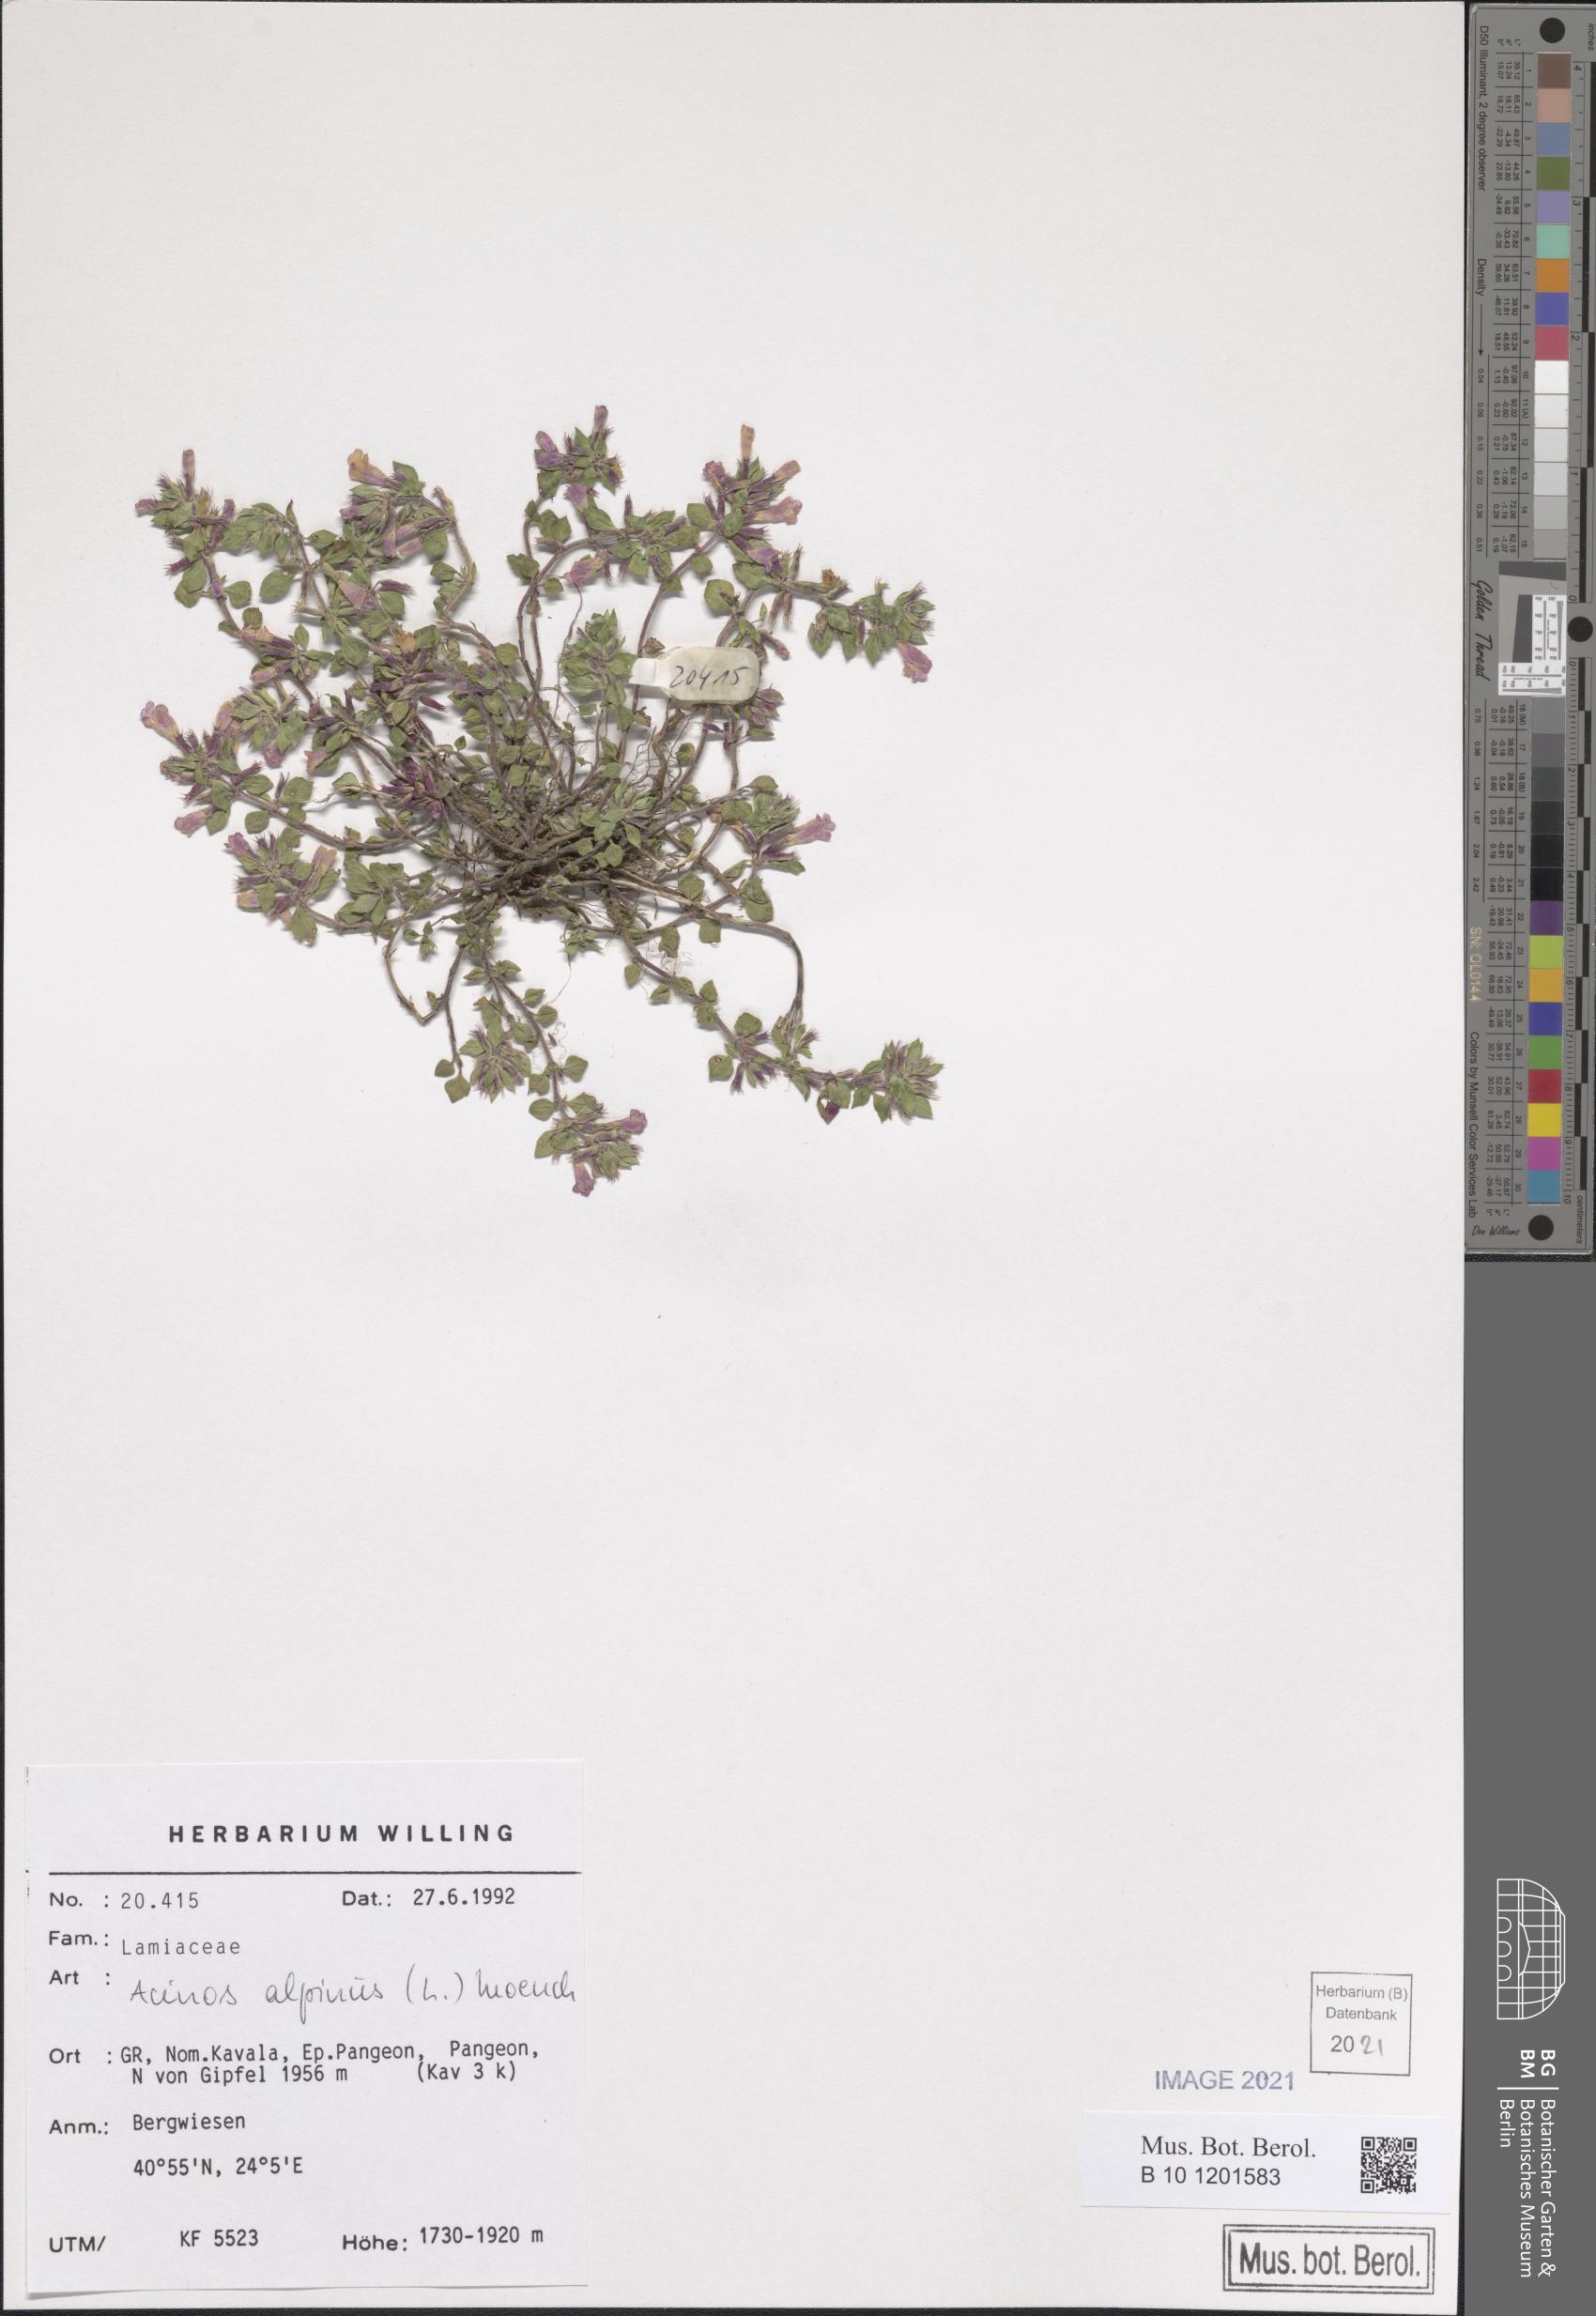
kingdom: Plantae
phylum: Tracheophyta
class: Magnoliopsida
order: Lamiales
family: Lamiaceae
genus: Clinopodium
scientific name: Clinopodium alpinum
